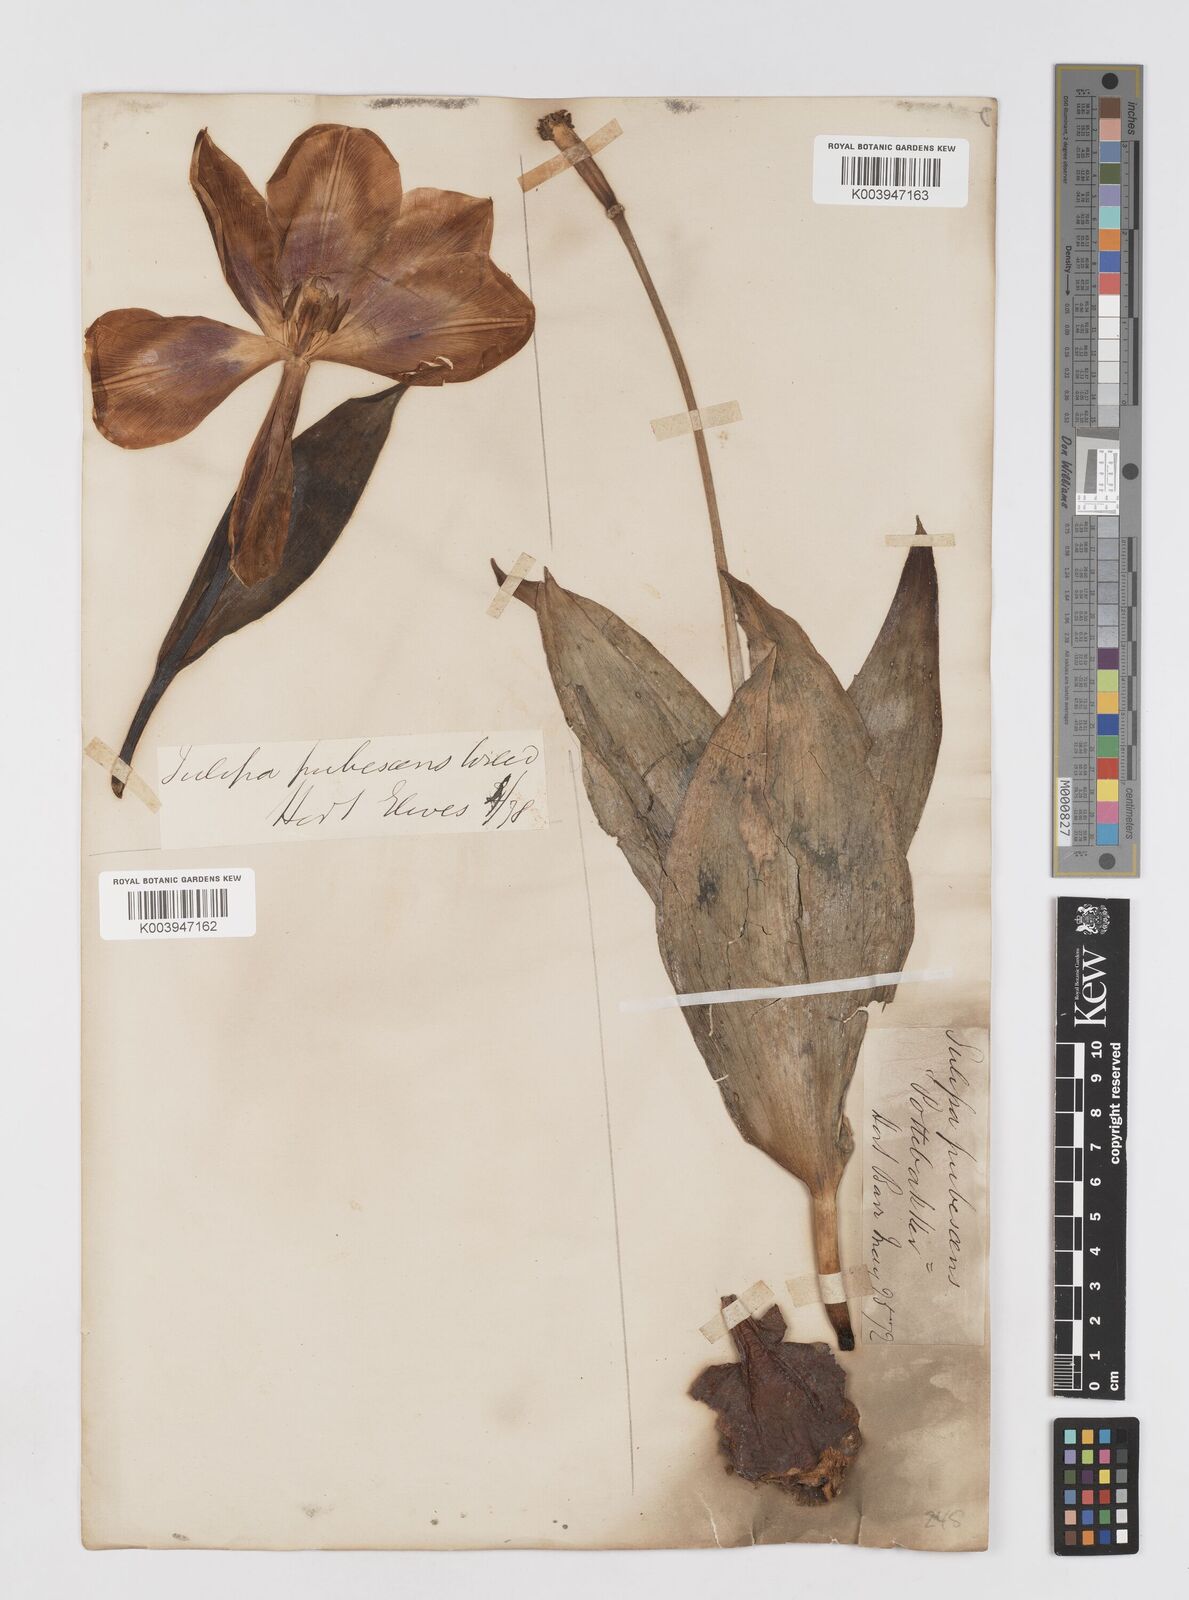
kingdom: Plantae
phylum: Tracheophyta
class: Liliopsida
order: Liliales
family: Liliaceae
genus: Tulipa
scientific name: Tulipa gesneriana
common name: Garden tulip
